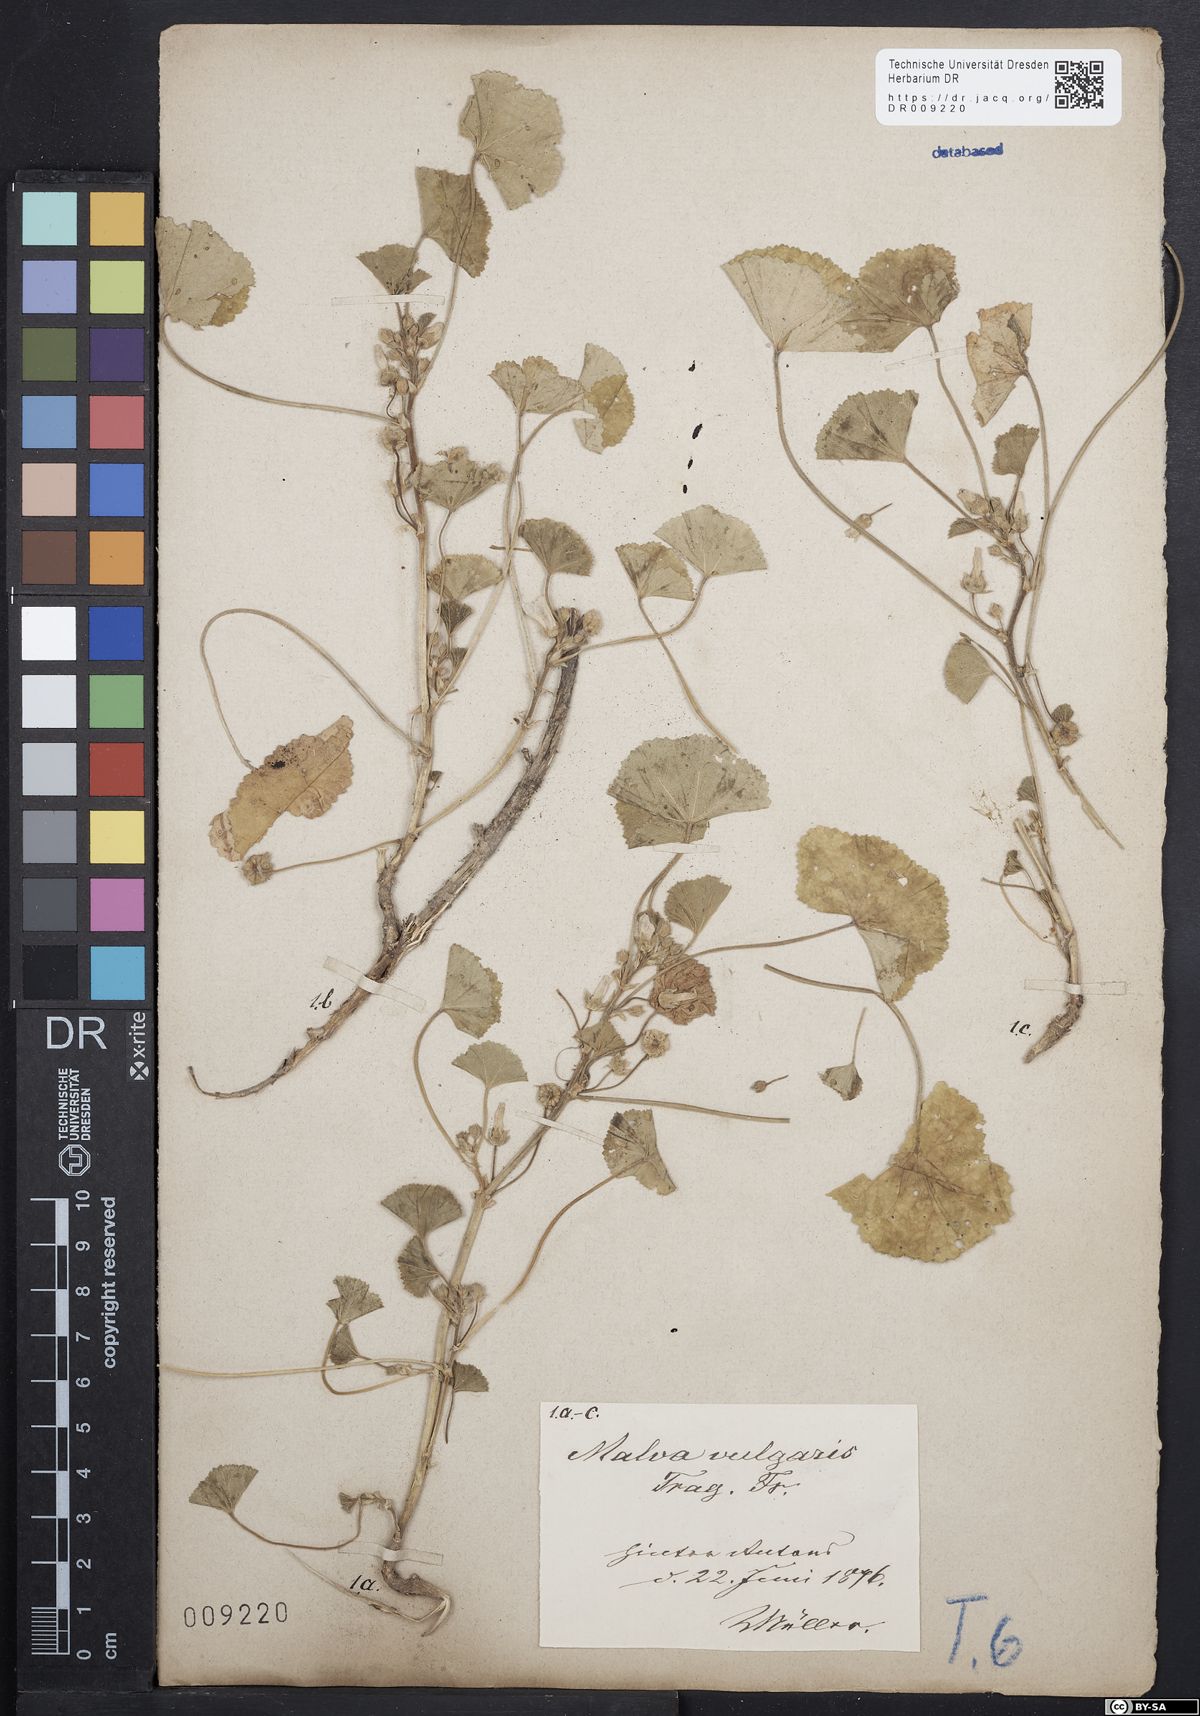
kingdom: Plantae
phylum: Tracheophyta
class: Magnoliopsida
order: Malvales
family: Malvaceae
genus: Malva
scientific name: Malva neglecta
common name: Common mallow
